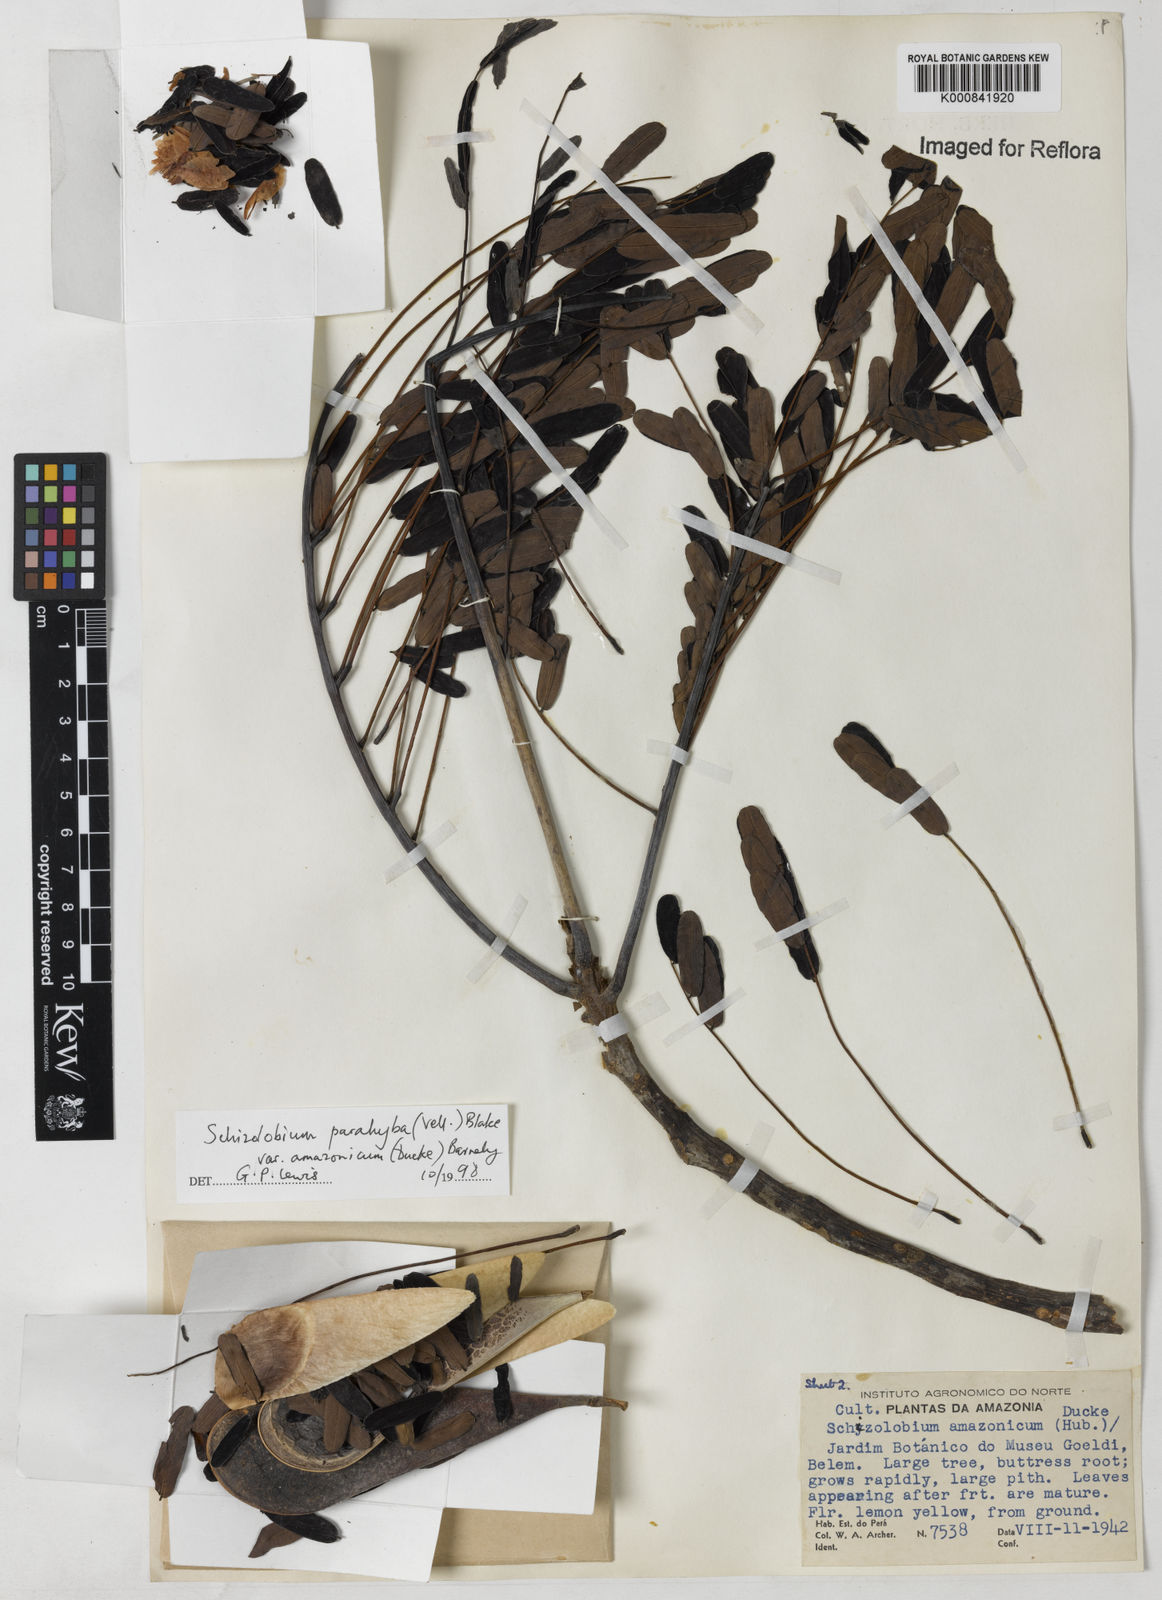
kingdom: Plantae
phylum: Tracheophyta
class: Magnoliopsida
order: Fabales
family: Fabaceae
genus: Schizolobium
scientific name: Schizolobium parahyba
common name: Brazilian firetree
